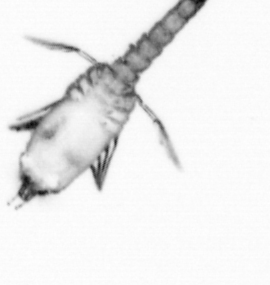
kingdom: Animalia
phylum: Arthropoda
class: Copepoda
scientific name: Copepoda
